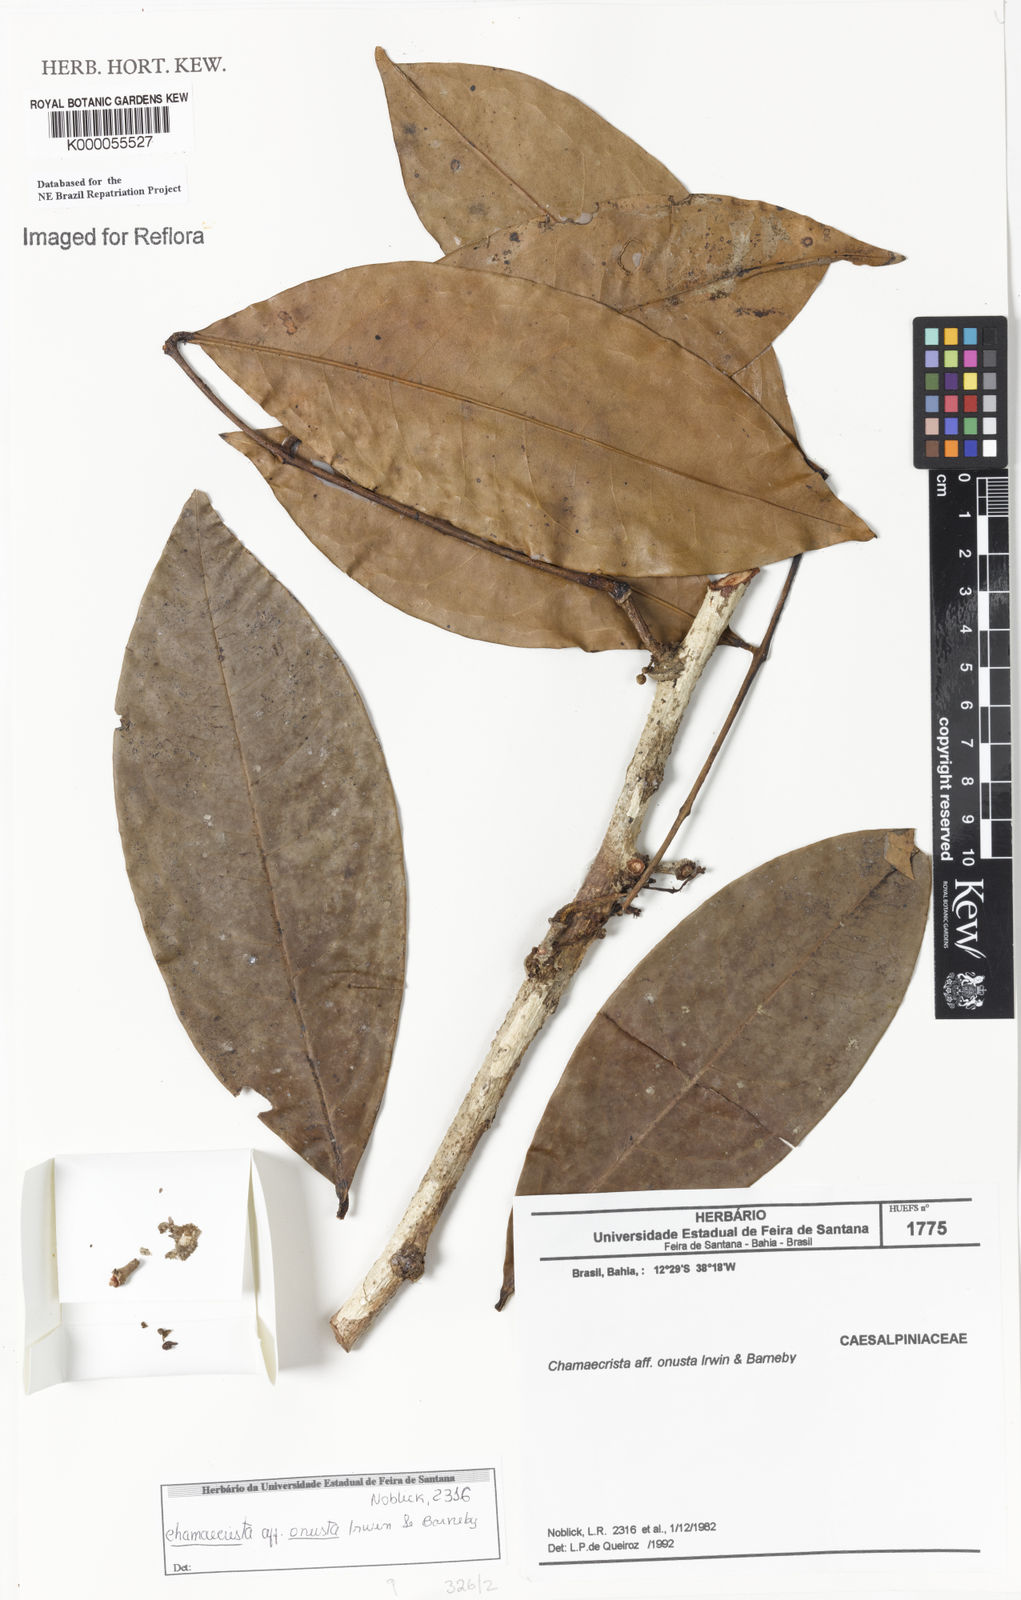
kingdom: Plantae
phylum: Tracheophyta
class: Magnoliopsida
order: Fabales
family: Fabaceae
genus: Chamaecrista
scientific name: Chamaecrista onusta
